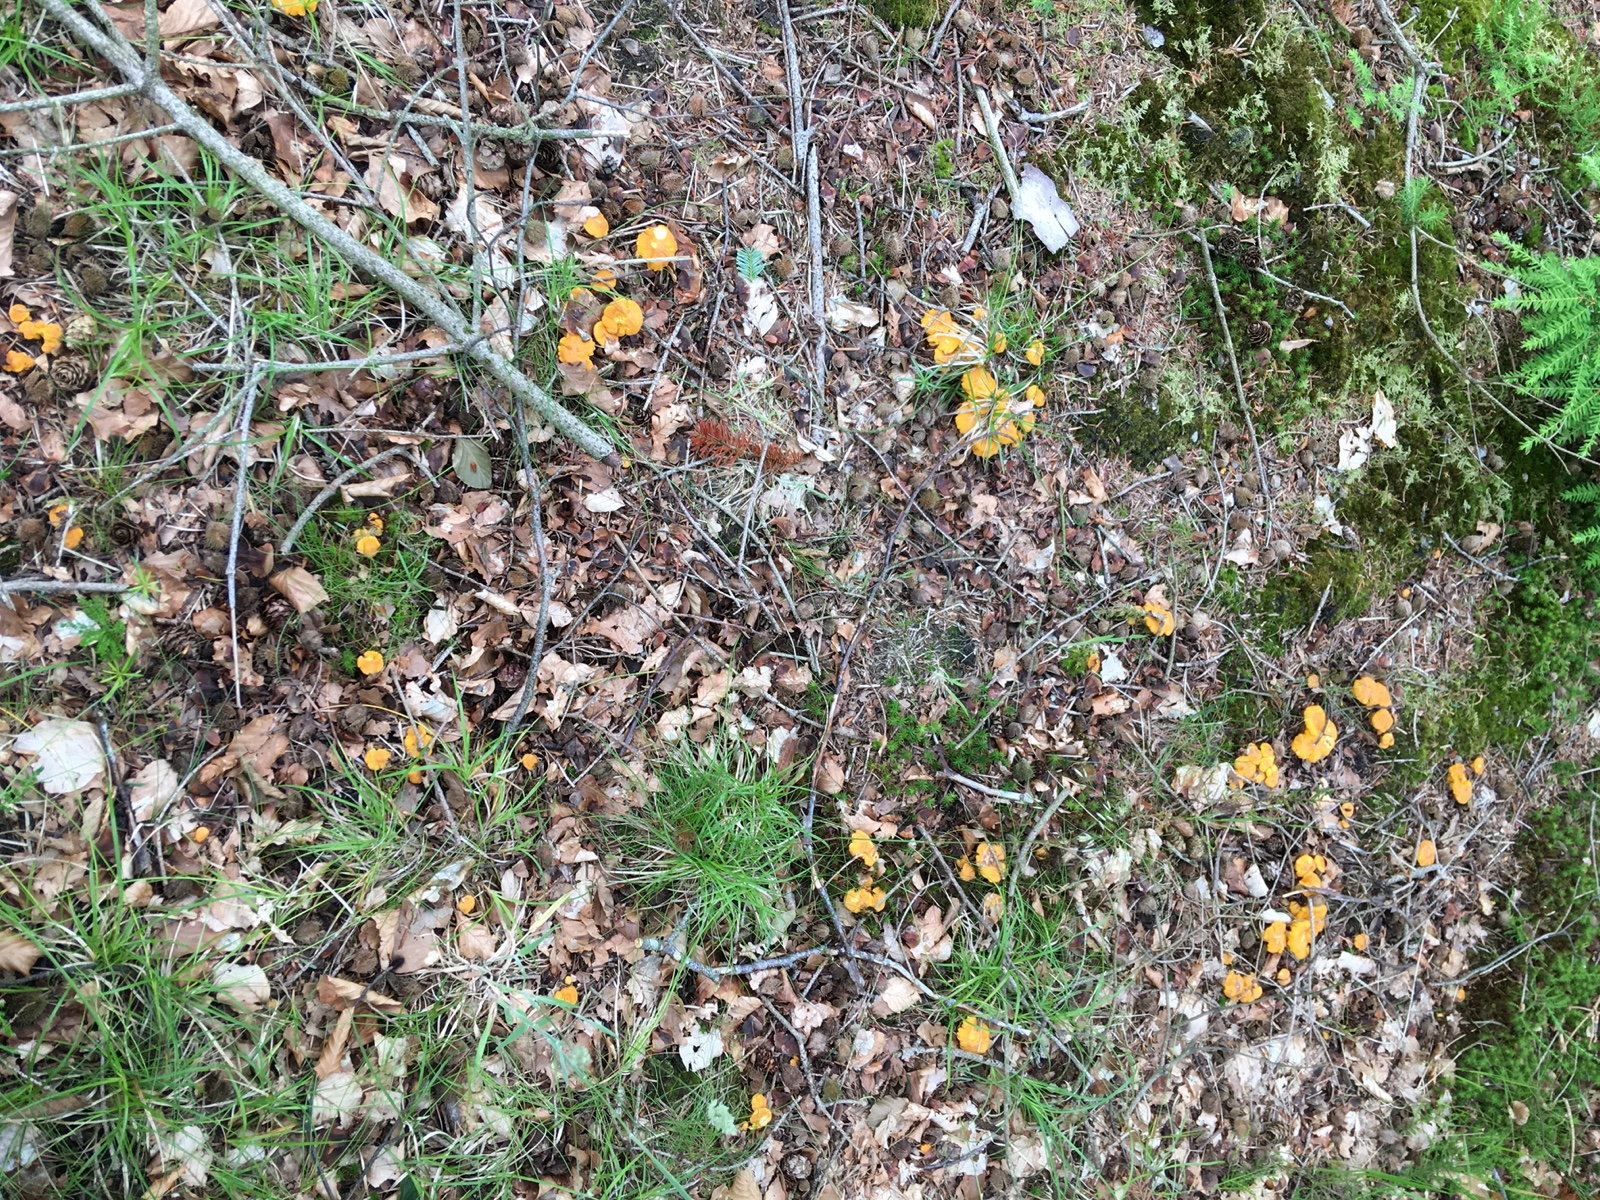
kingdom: Fungi
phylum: Basidiomycota
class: Agaricomycetes
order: Cantharellales
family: Hydnaceae
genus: Cantharellus
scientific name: Cantharellus cibarius
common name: almindelig kantarel
